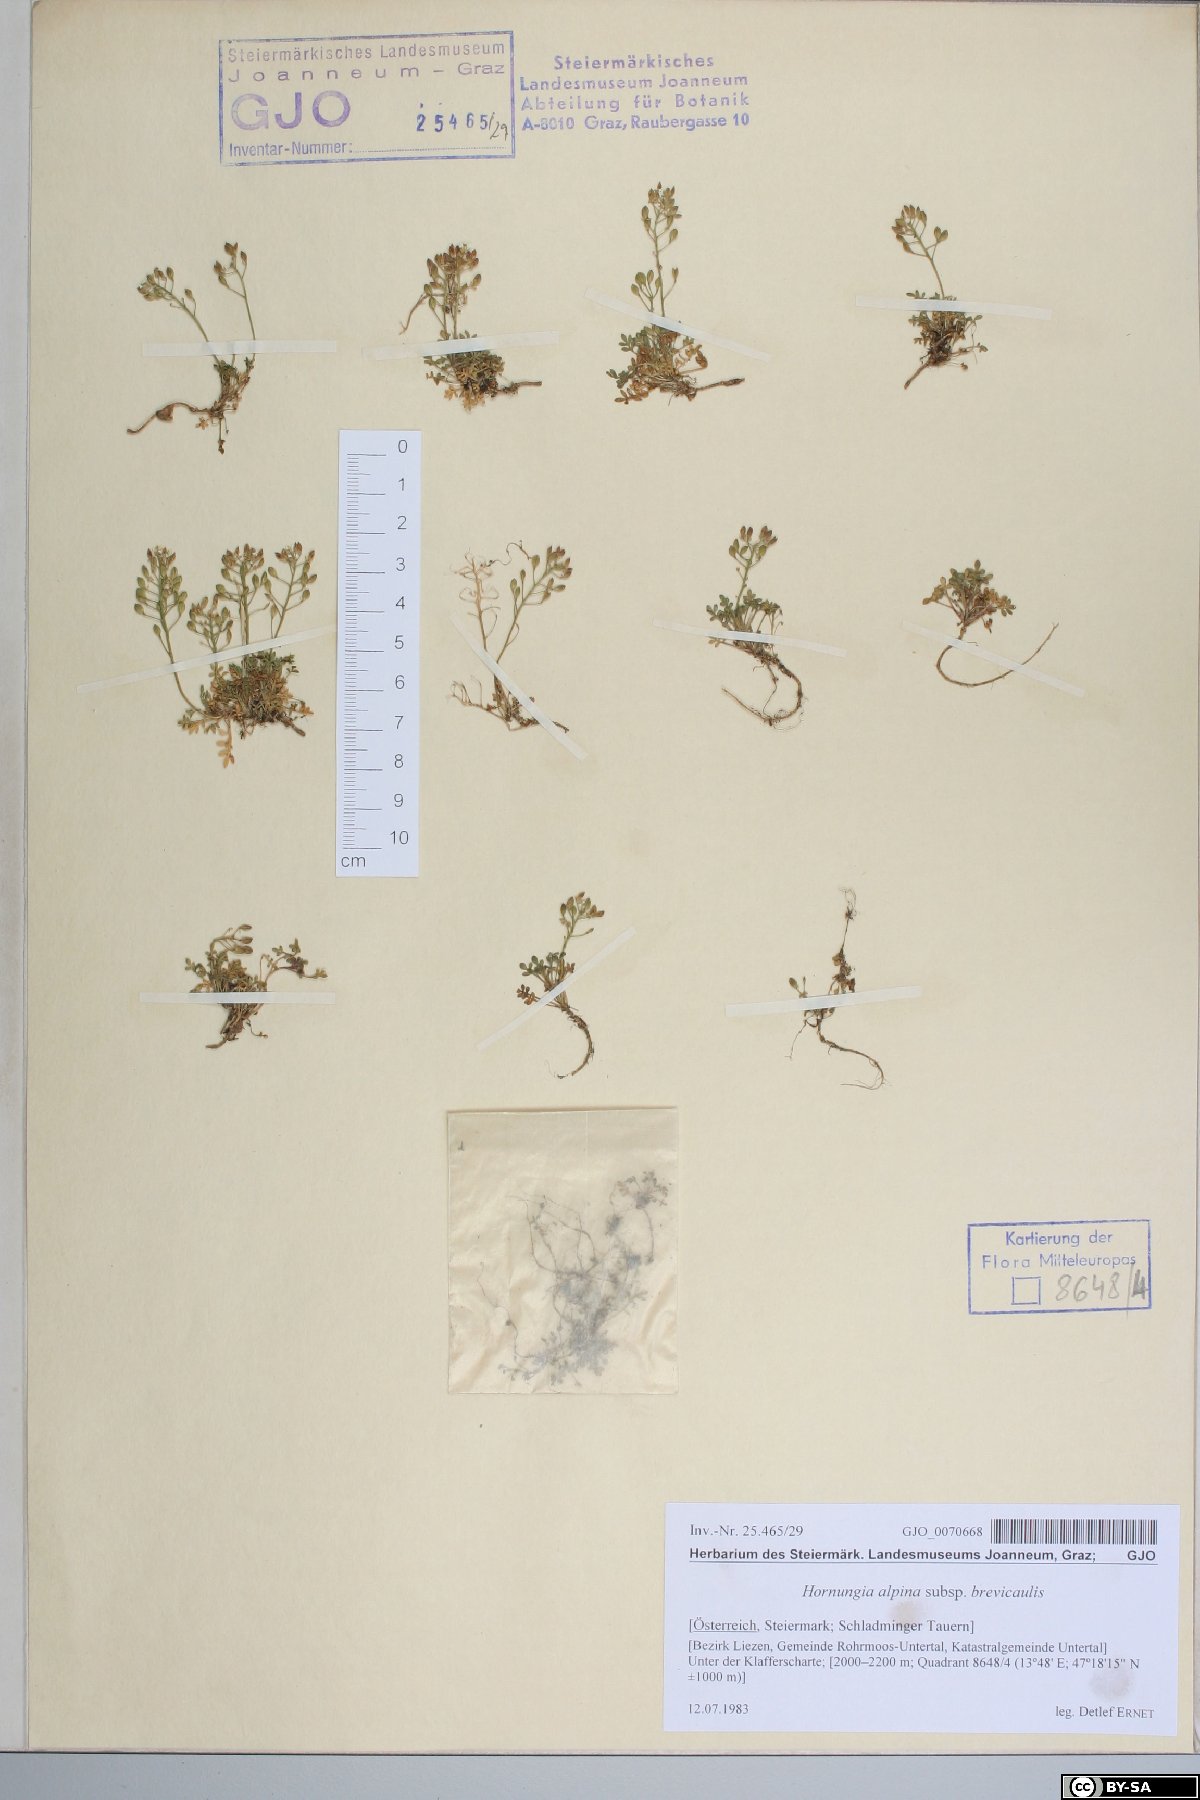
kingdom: Plantae
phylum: Tracheophyta
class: Magnoliopsida
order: Brassicales
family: Brassicaceae
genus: Hornungia
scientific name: Hornungia alpina
